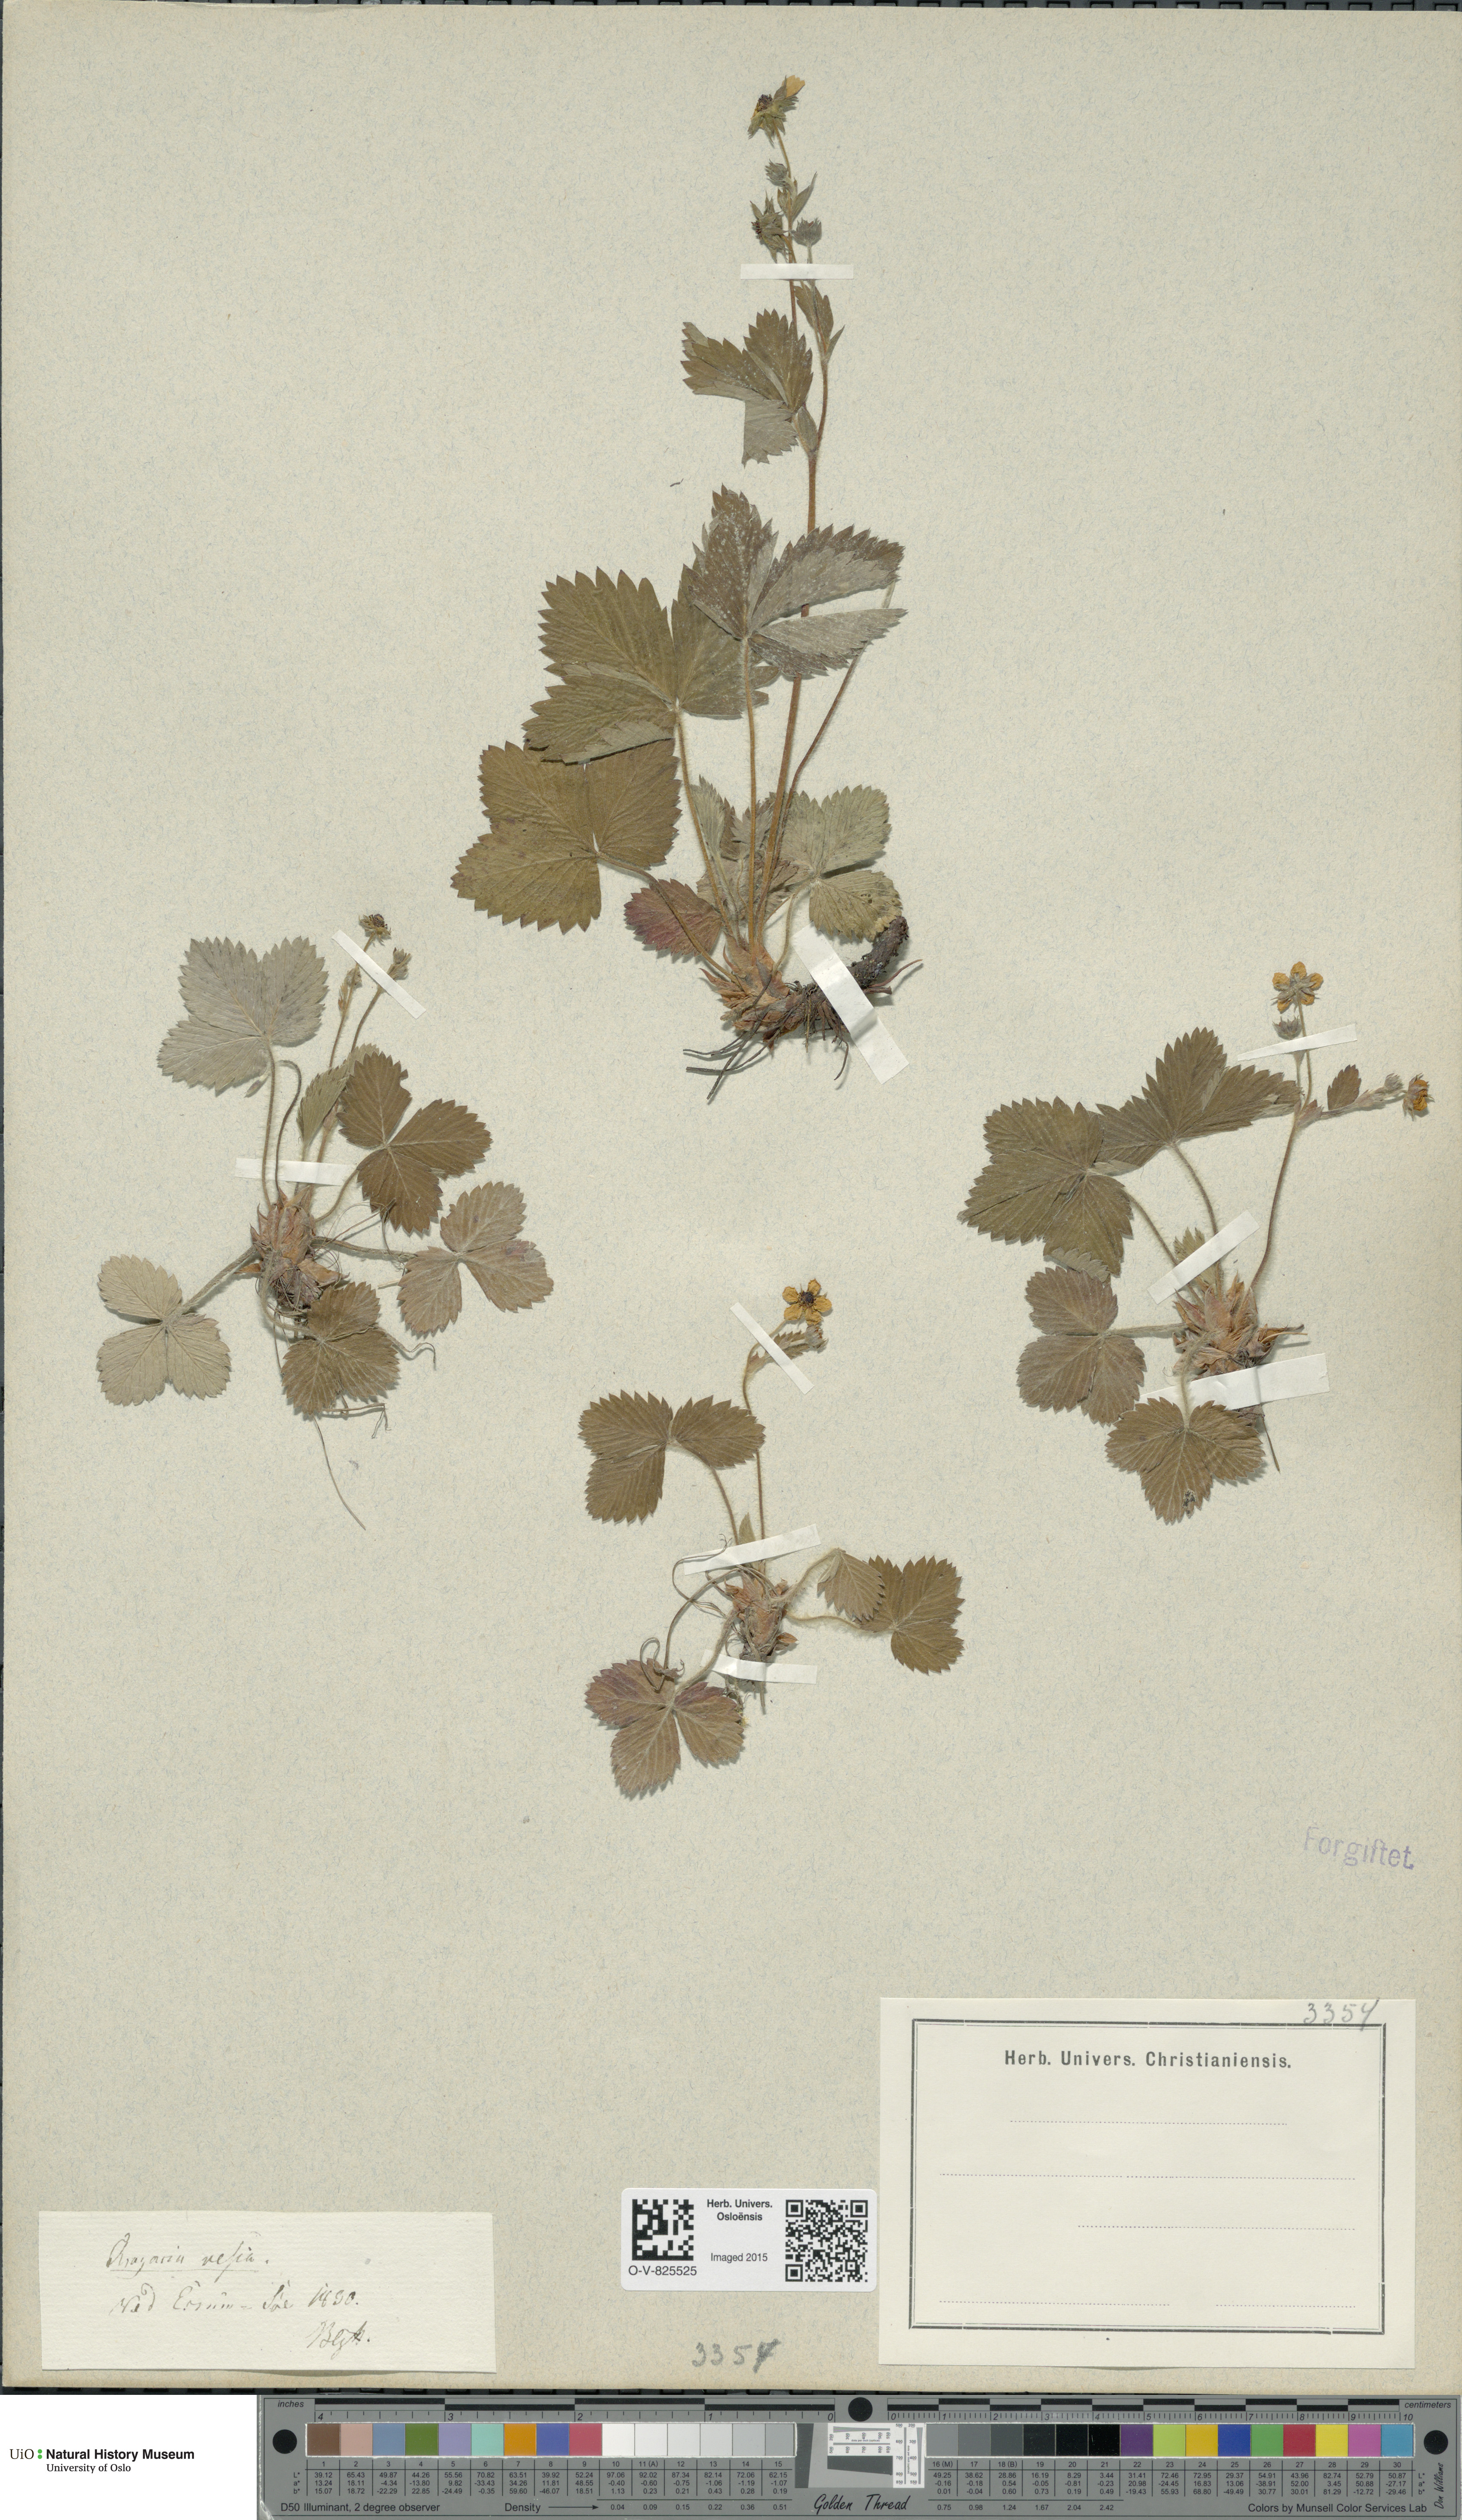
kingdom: Plantae
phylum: Tracheophyta
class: Magnoliopsida
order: Rosales
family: Rosaceae
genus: Fragaria
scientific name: Fragaria vesca
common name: Wild strawberry
